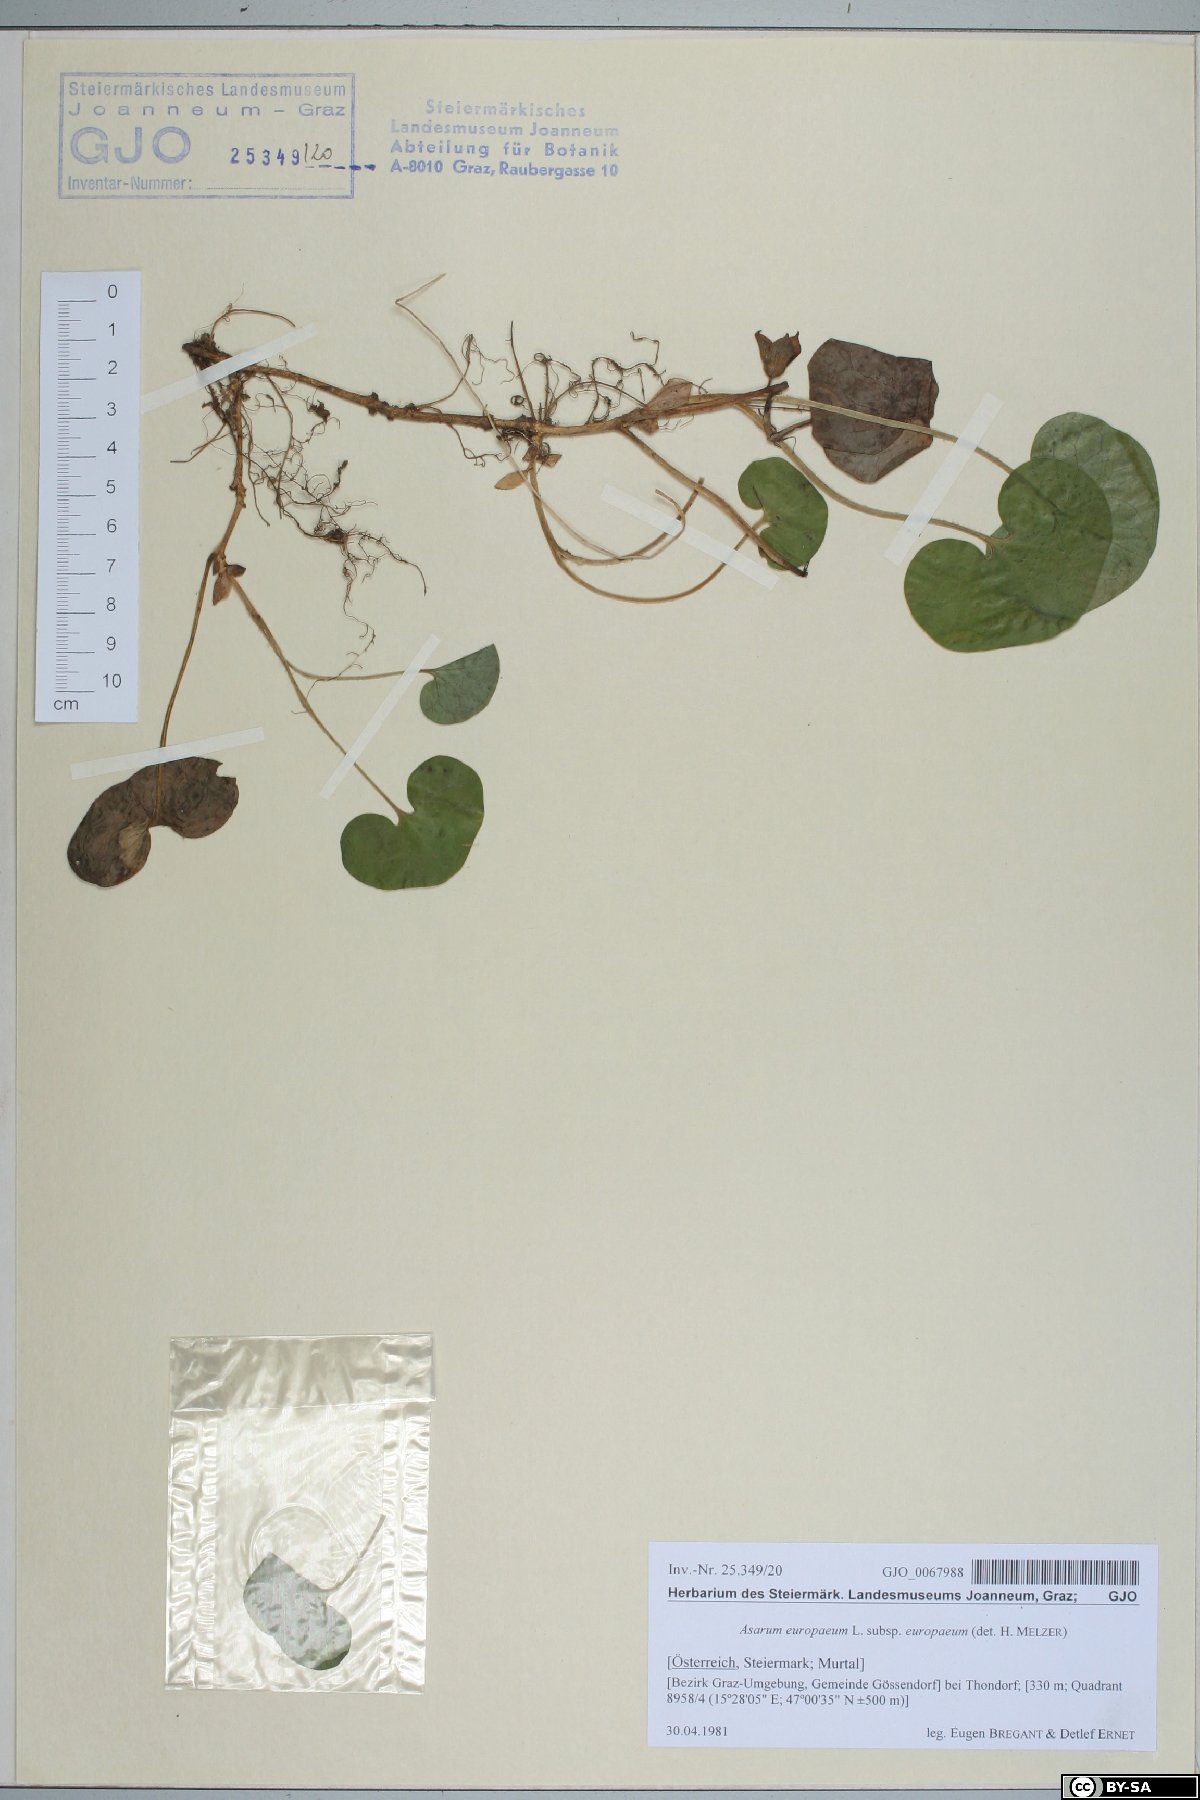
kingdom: Plantae
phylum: Tracheophyta
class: Magnoliopsida
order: Piperales
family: Aristolochiaceae
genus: Asarum
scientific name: Asarum europaeum
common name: Asarabacca
